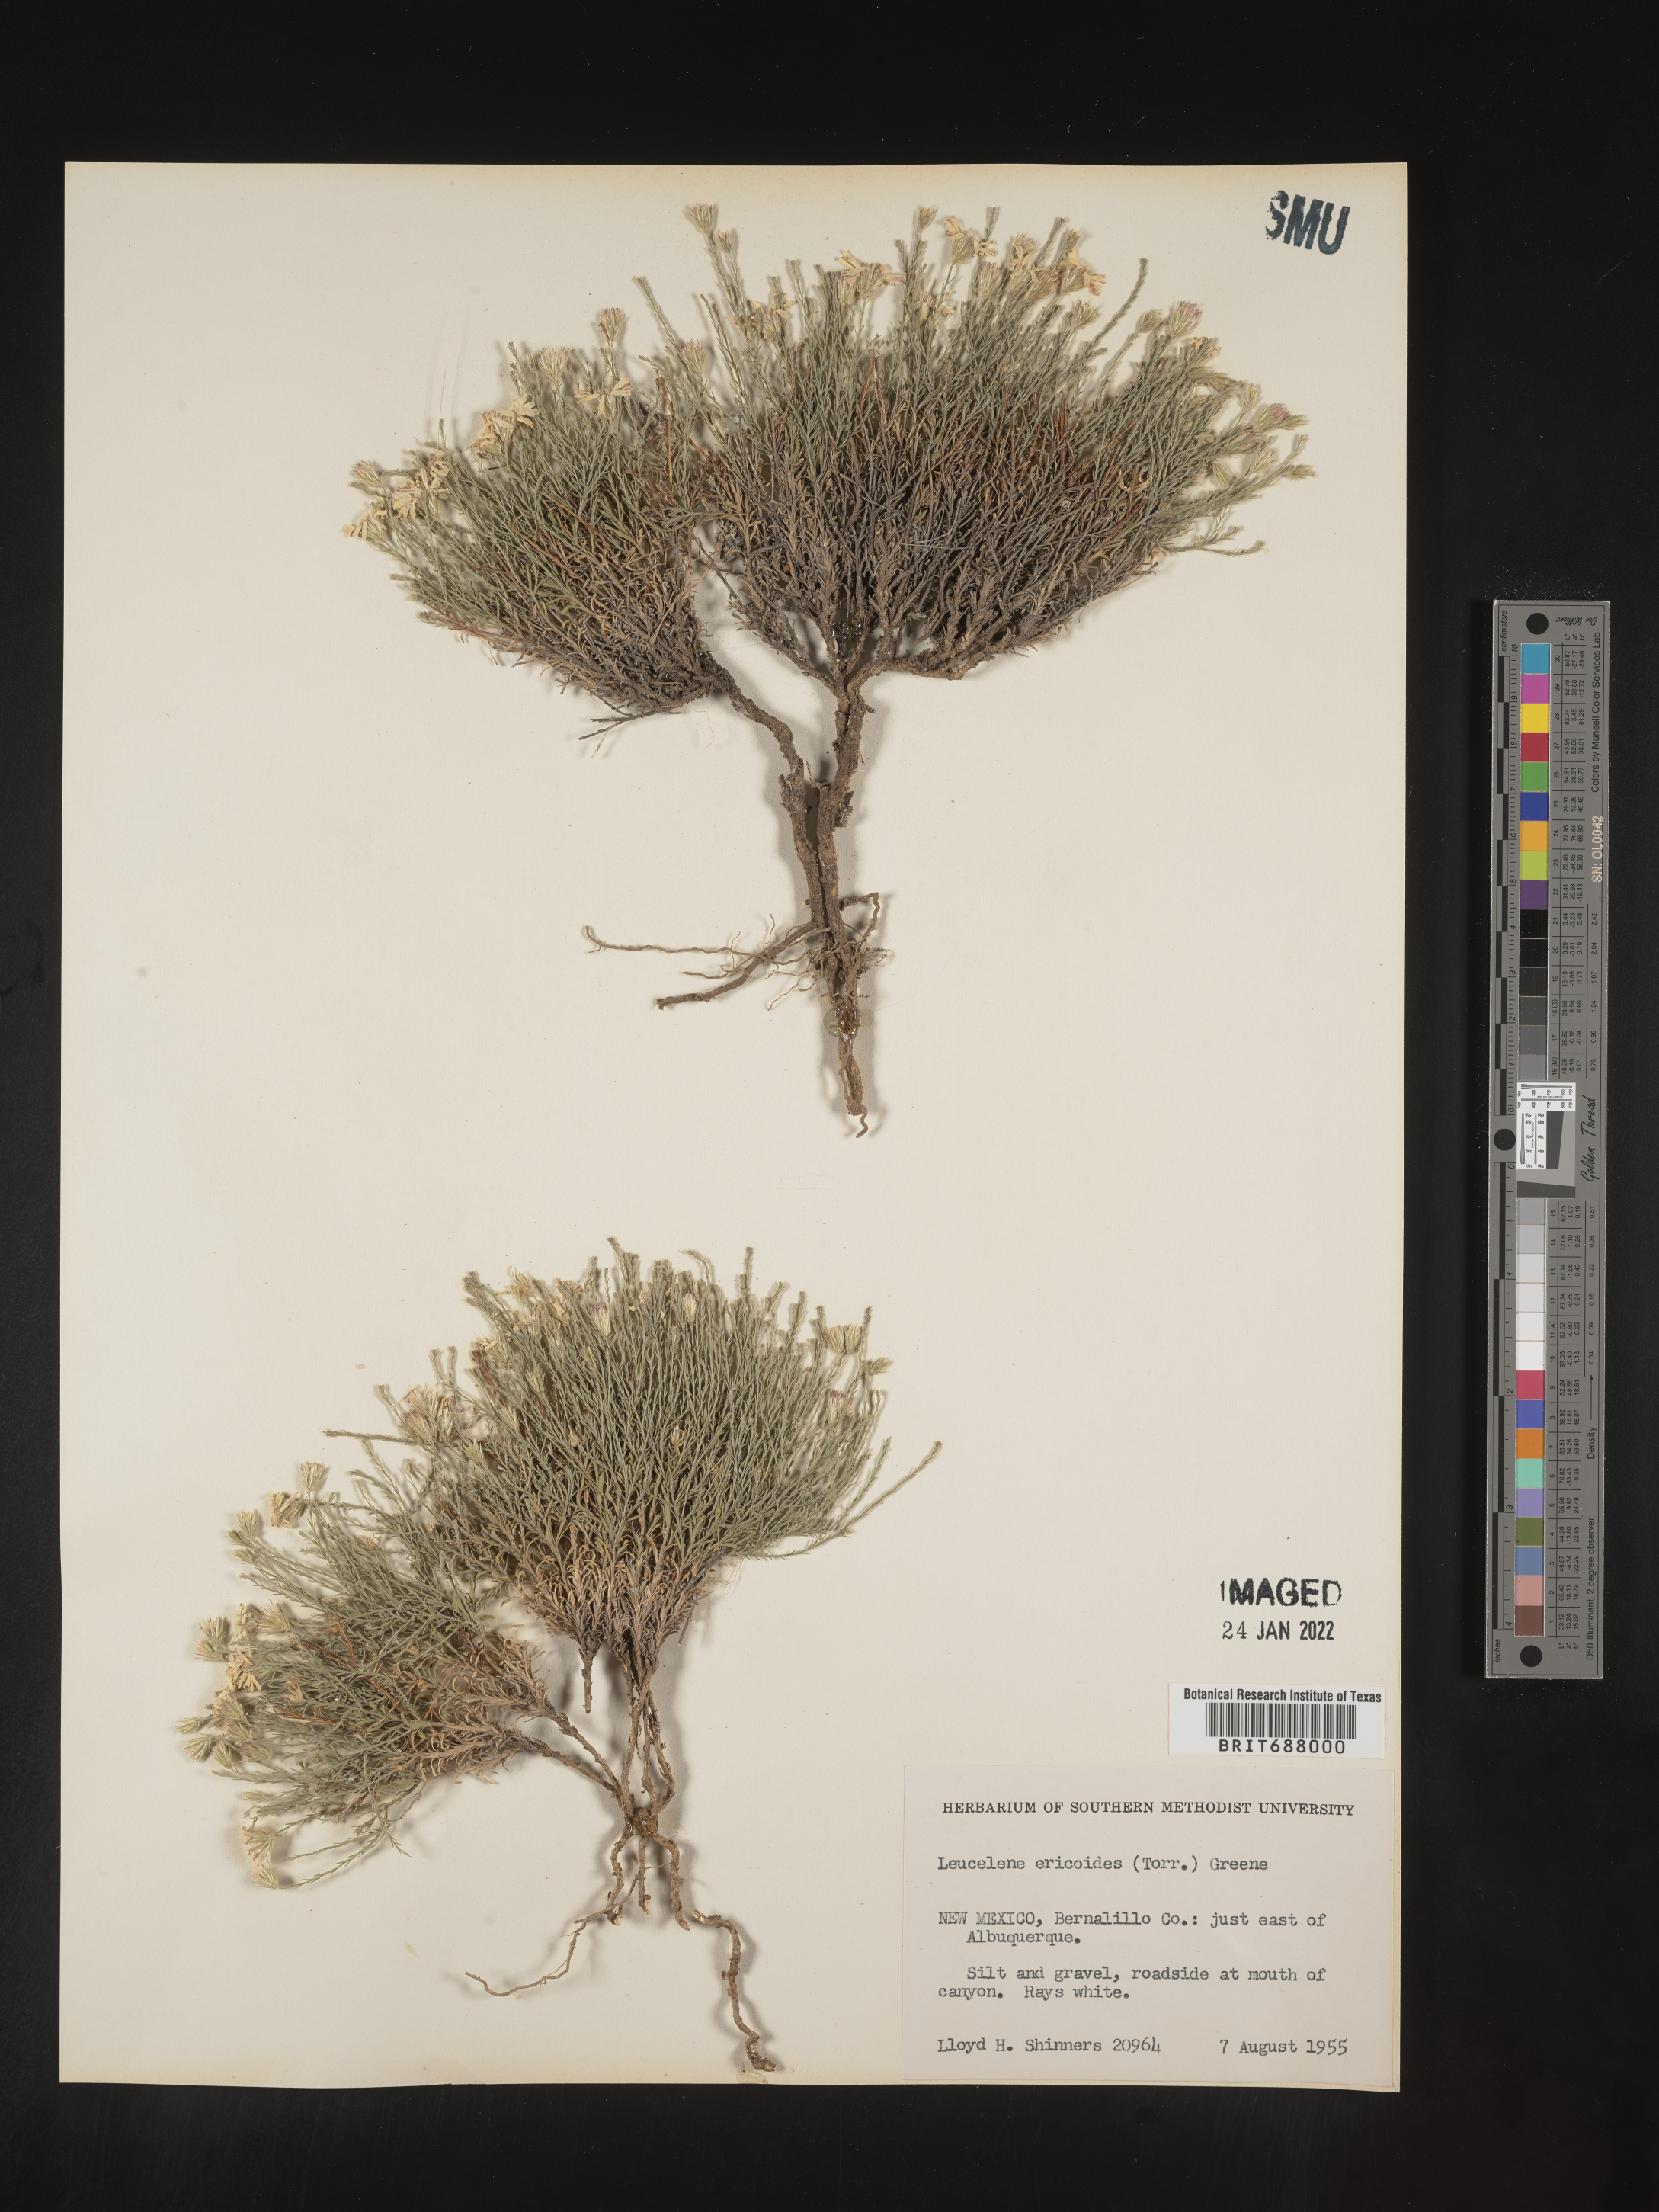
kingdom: Plantae
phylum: Tracheophyta
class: Magnoliopsida
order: Asterales
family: Asteraceae
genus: Chaetopappa
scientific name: Chaetopappa ericoides
